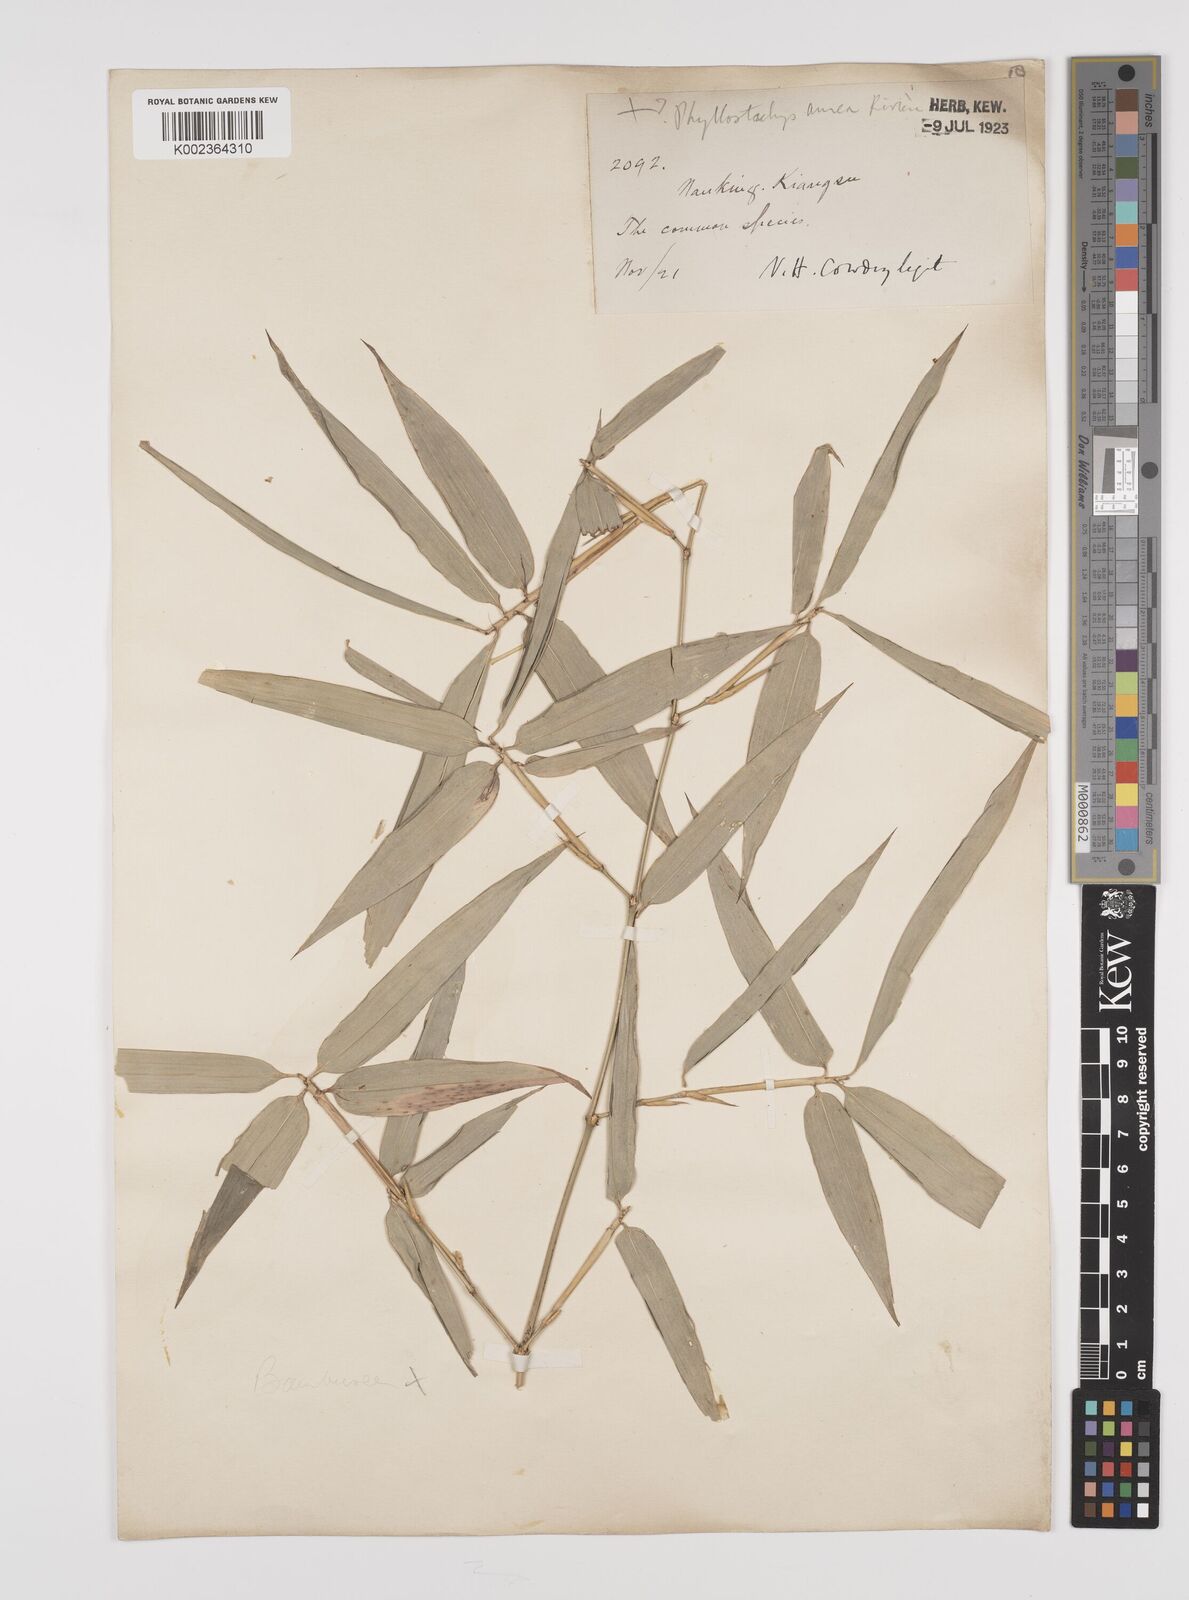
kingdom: Plantae
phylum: Tracheophyta
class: Liliopsida
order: Poales
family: Poaceae
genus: Phyllostachys
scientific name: Phyllostachys
